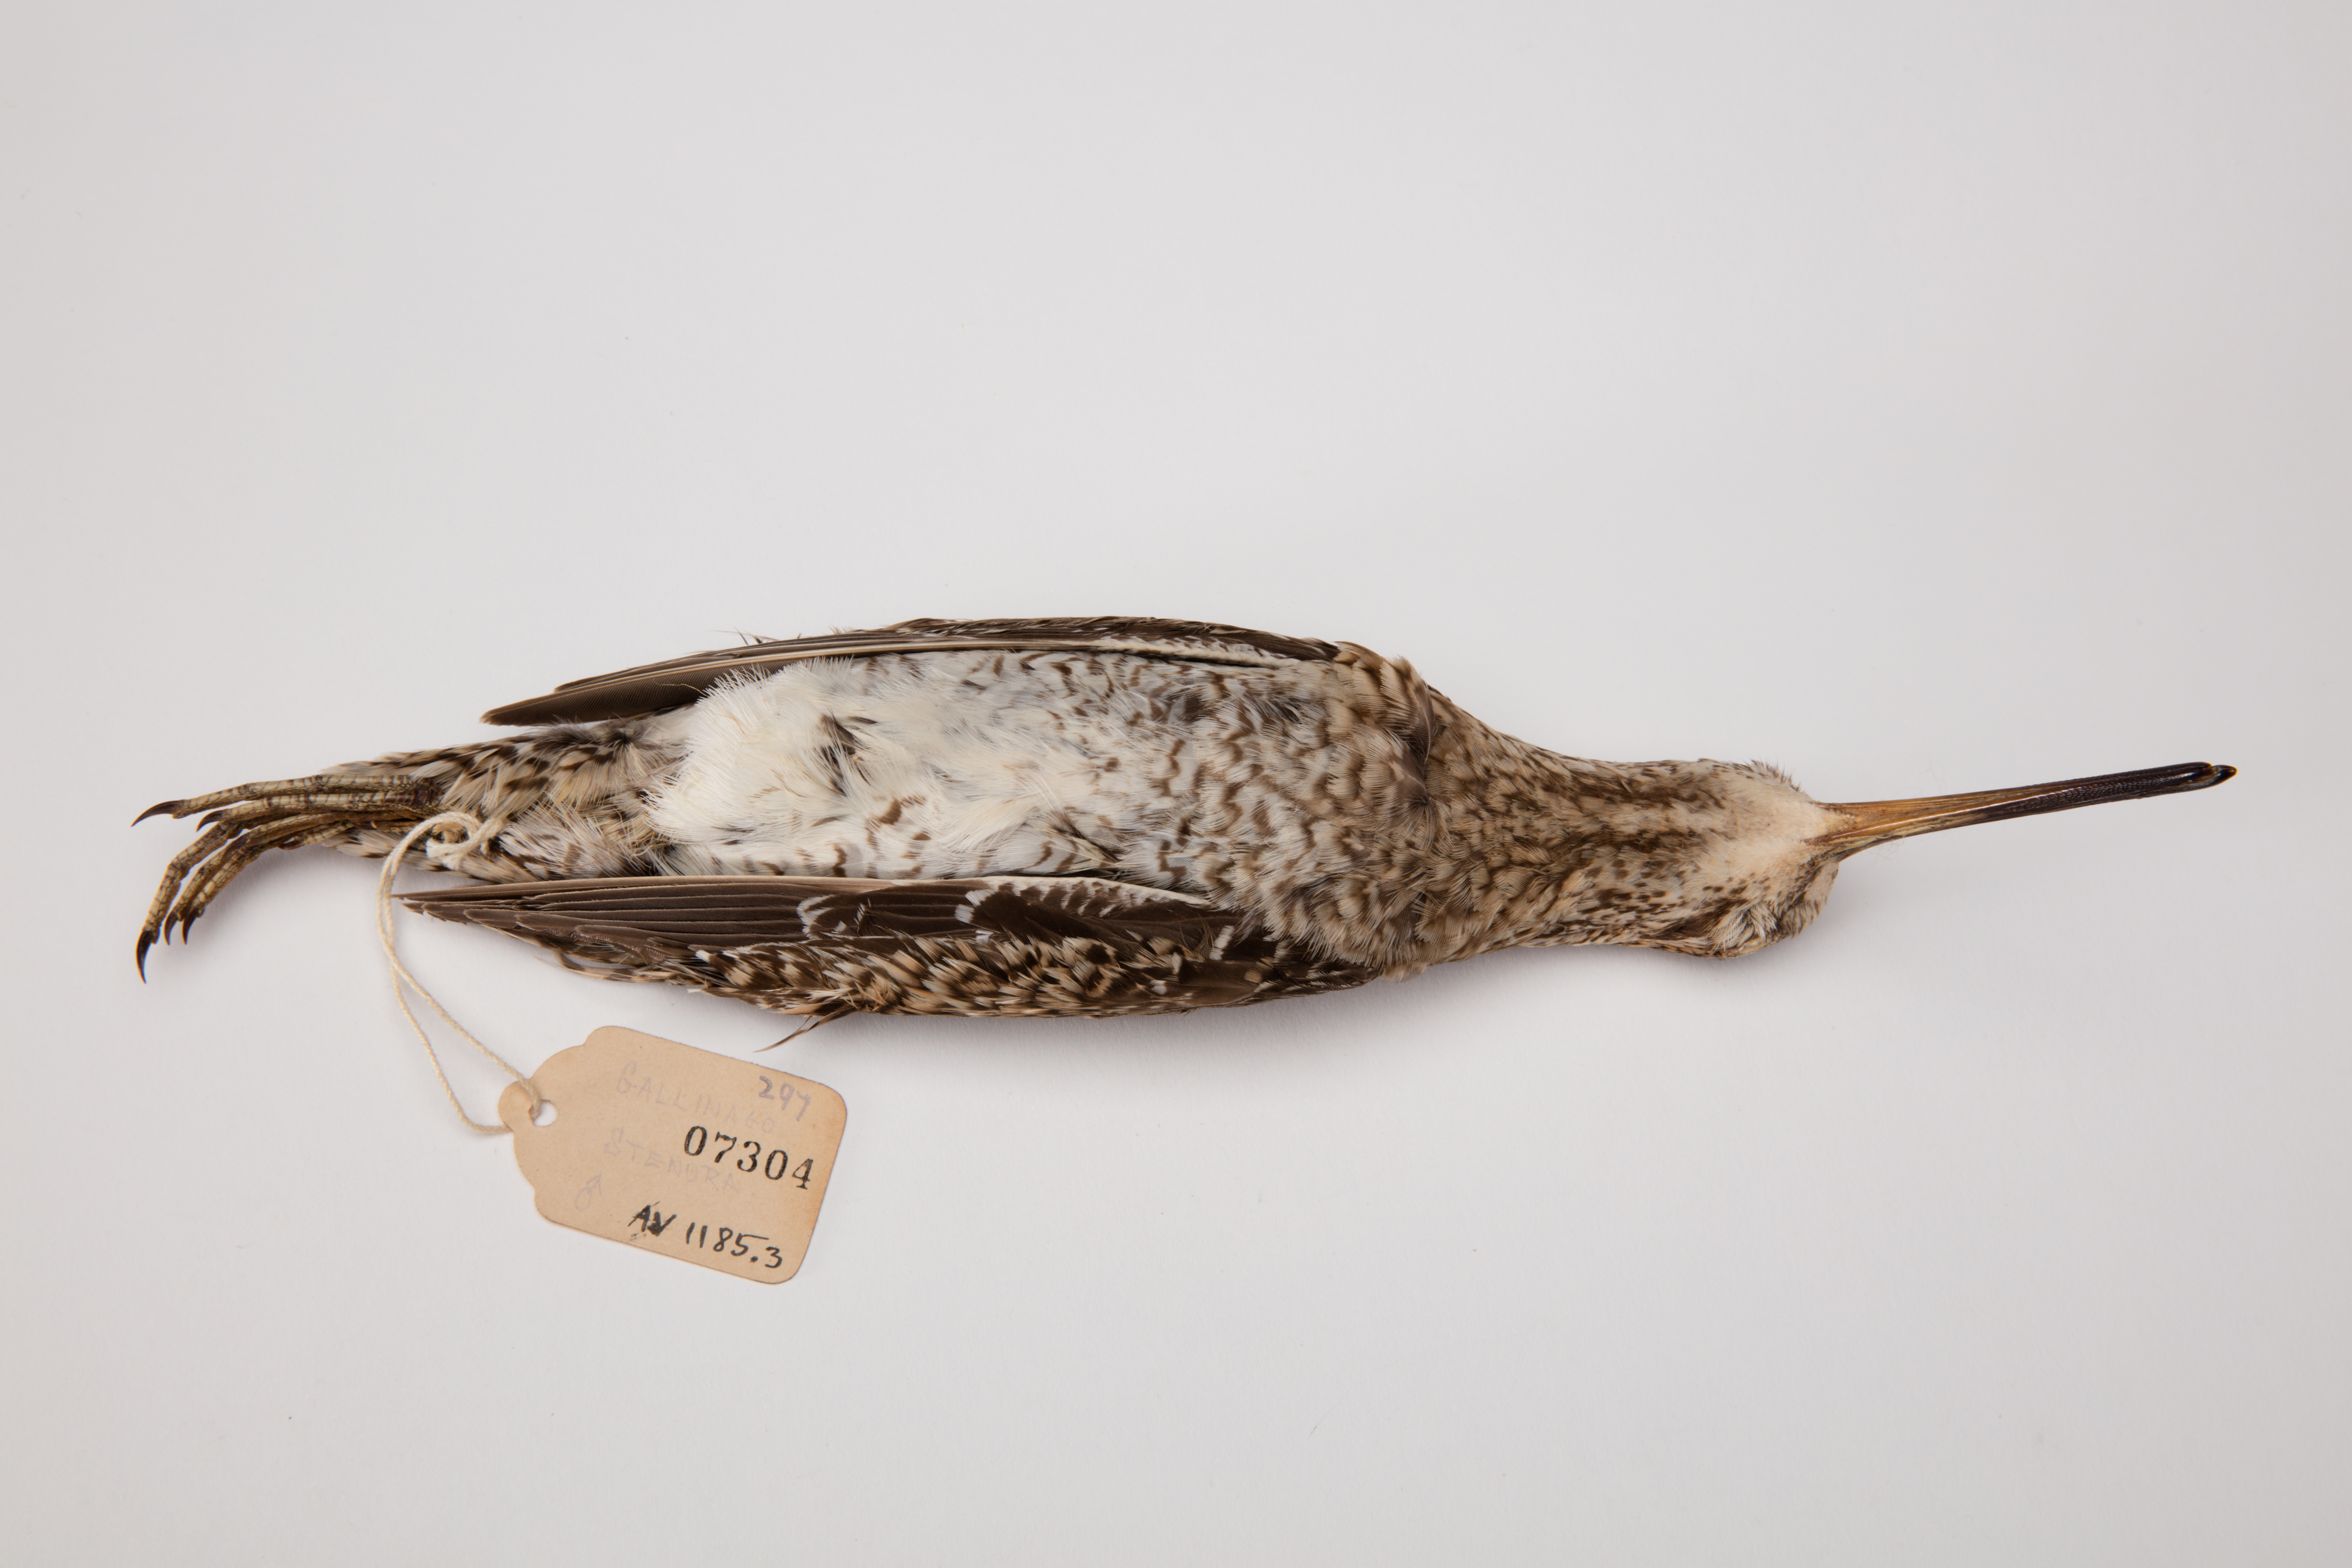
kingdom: Animalia
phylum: Chordata
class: Aves
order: Charadriiformes
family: Scolopacidae
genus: Gallinago
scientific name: Gallinago stenura
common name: Pin-tailed snipe
